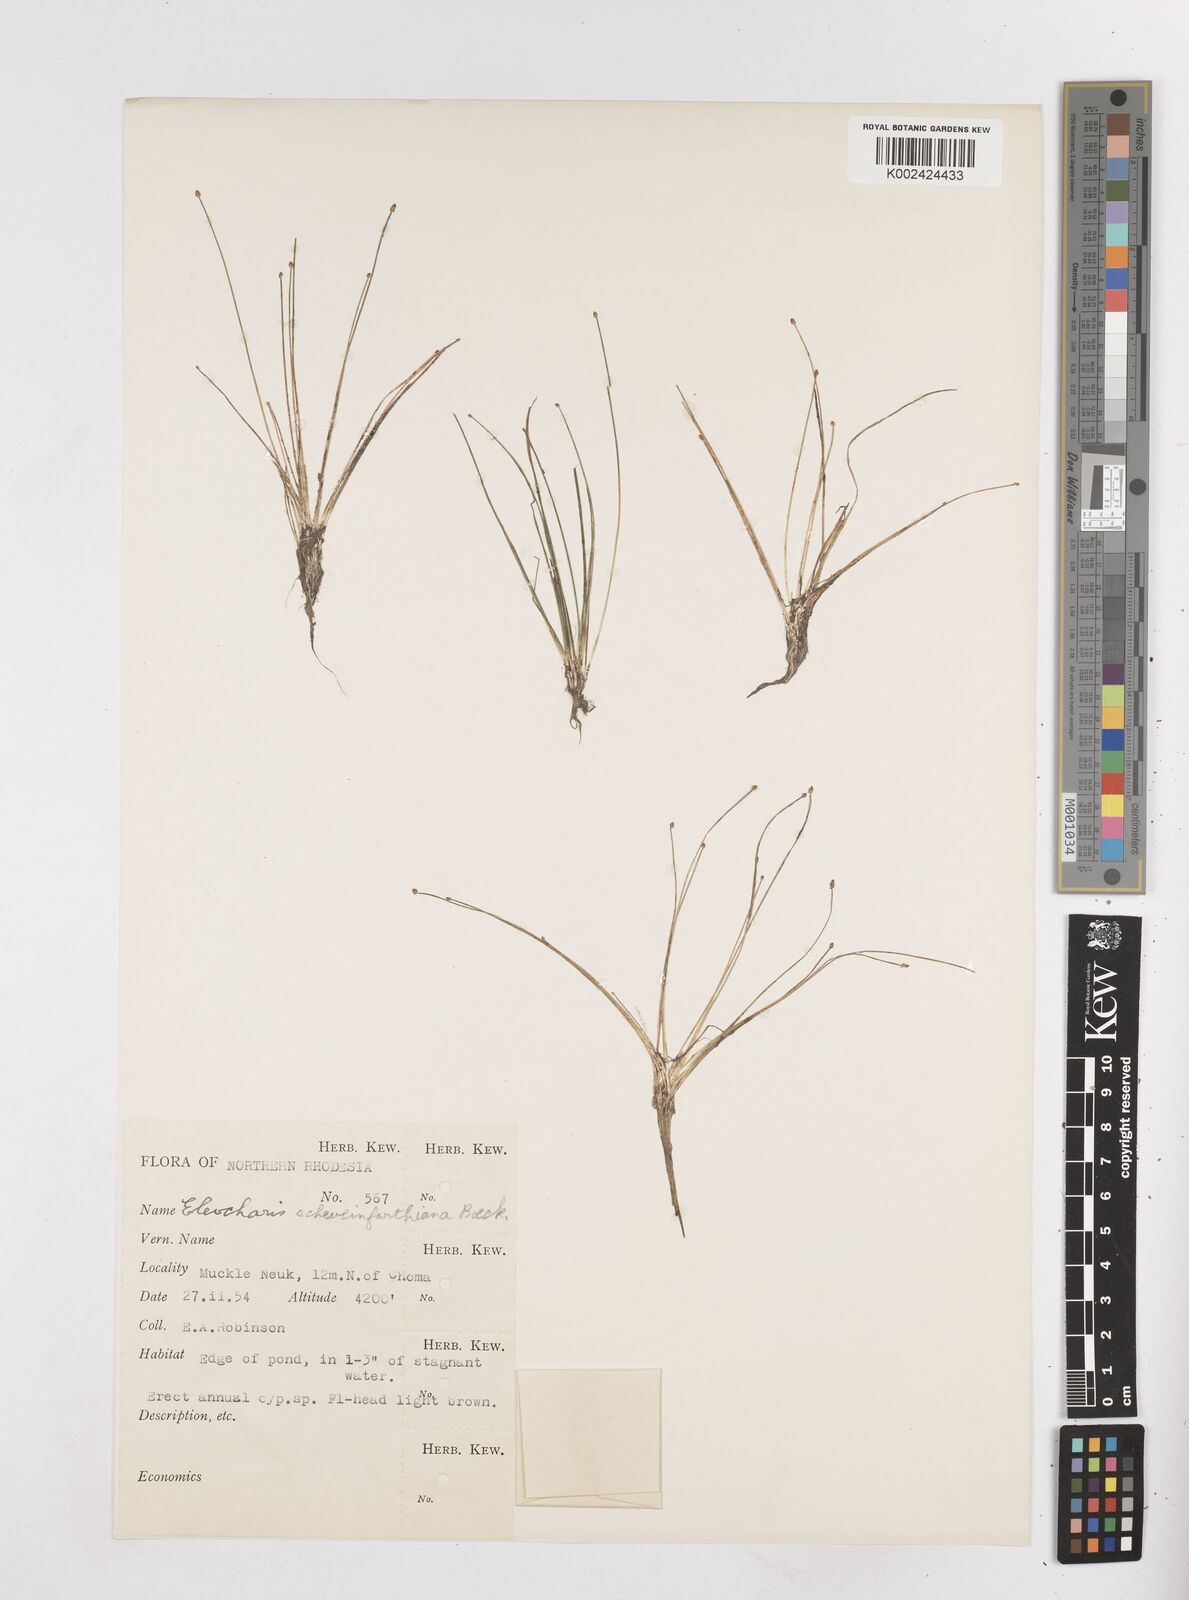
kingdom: Plantae
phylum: Tracheophyta
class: Liliopsida
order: Poales
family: Cyperaceae
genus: Eleocharis
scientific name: Eleocharis setifolia
